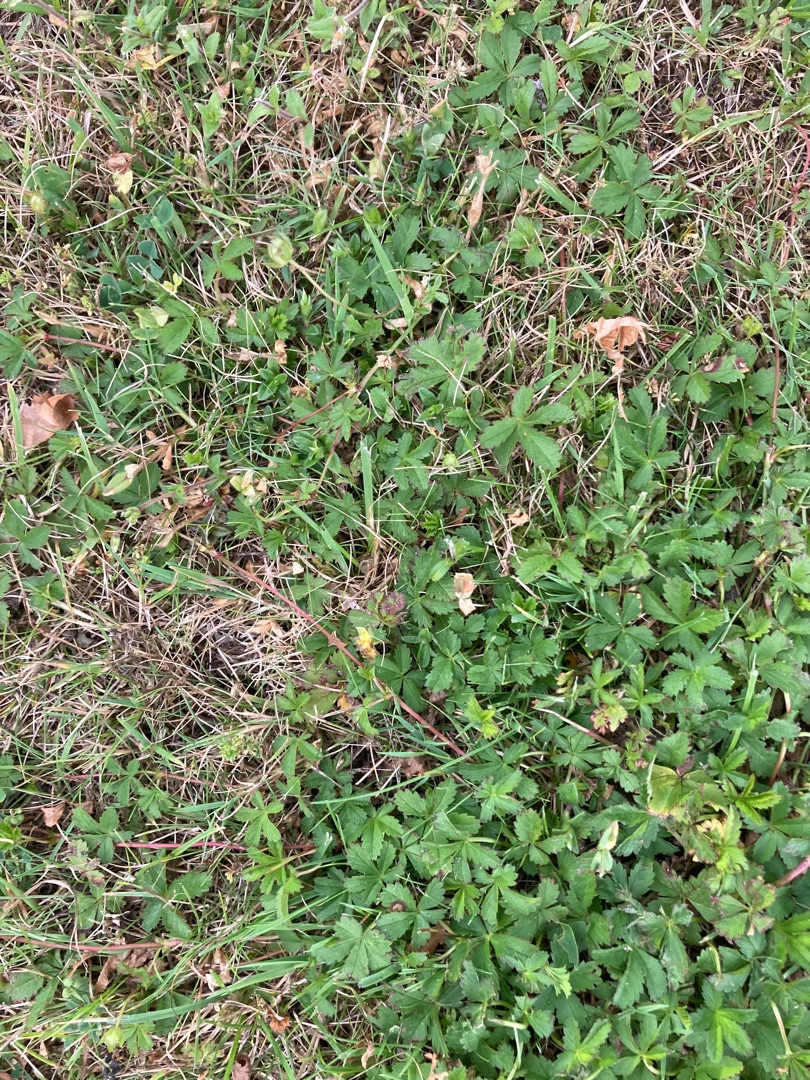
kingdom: Plantae
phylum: Tracheophyta
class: Magnoliopsida
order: Rosales
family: Rosaceae
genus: Potentilla
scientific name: Potentilla reptans
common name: Krybende potentil
